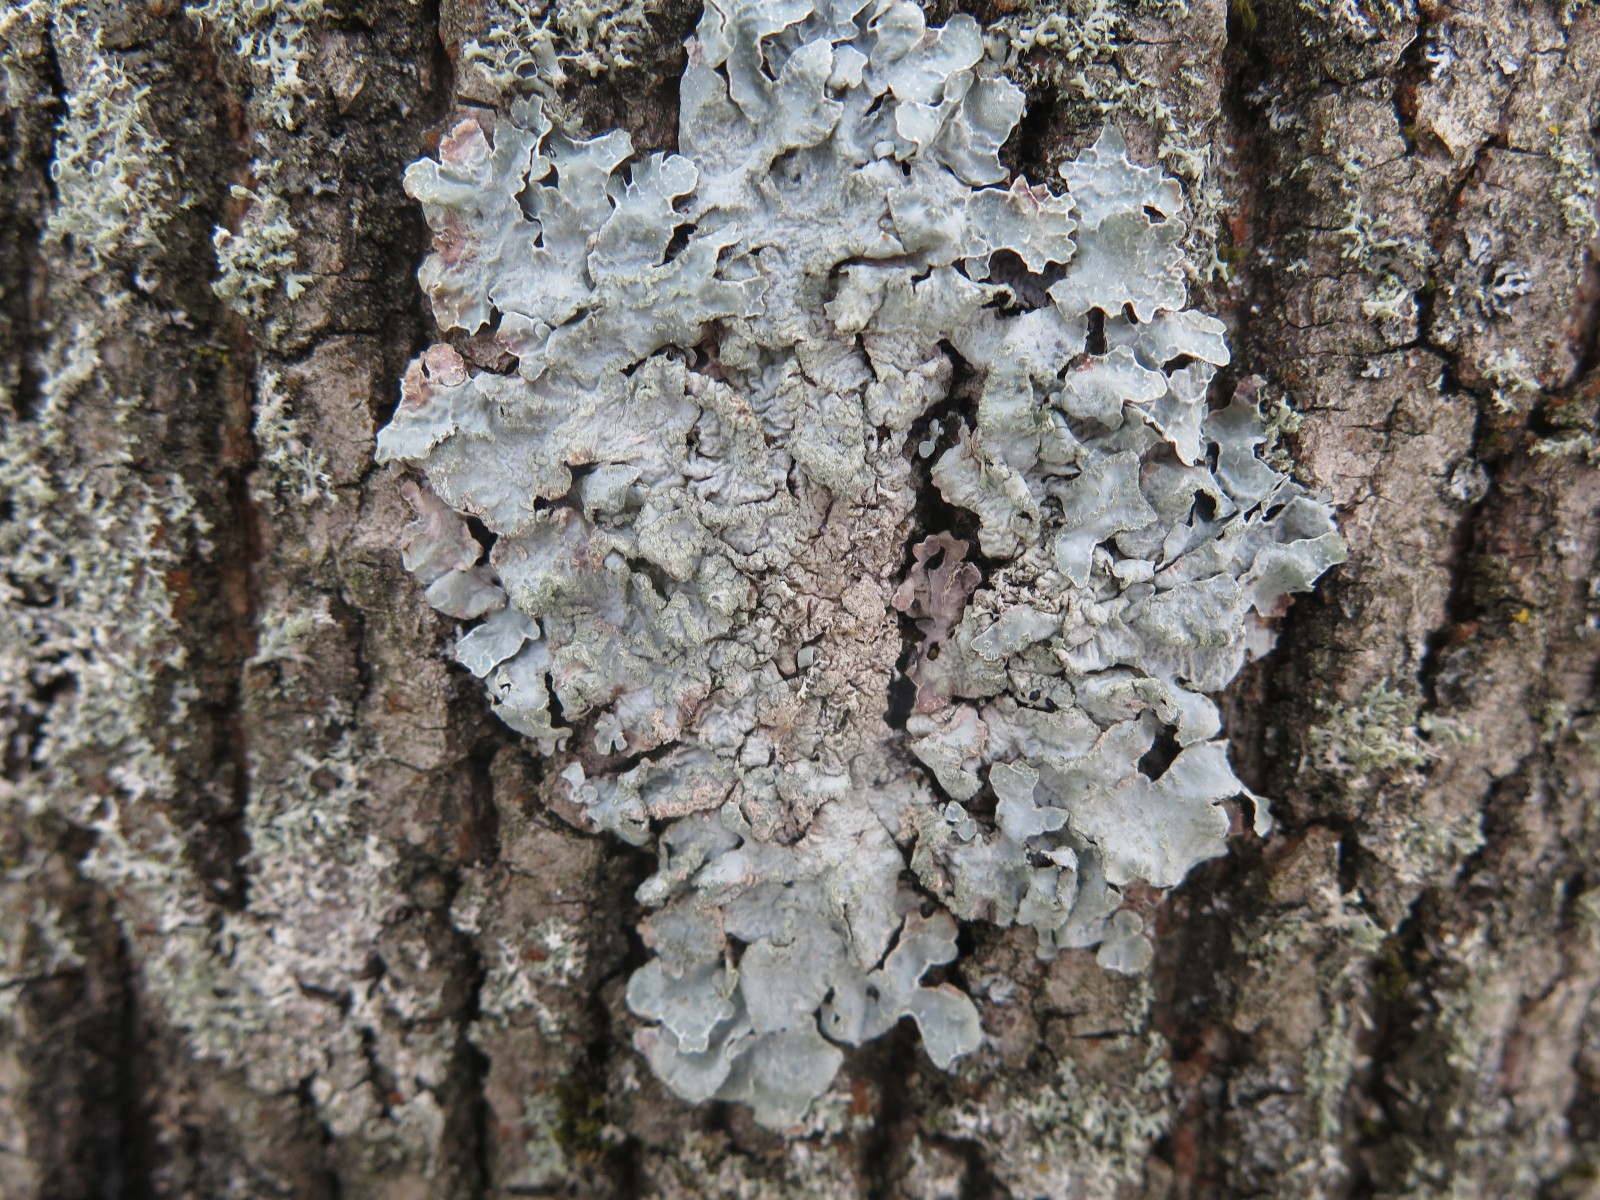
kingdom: Fungi
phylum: Ascomycota
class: Lecanoromycetes
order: Lecanorales
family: Parmeliaceae
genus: Parmelia
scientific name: Parmelia sulcata
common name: rynket skållav
